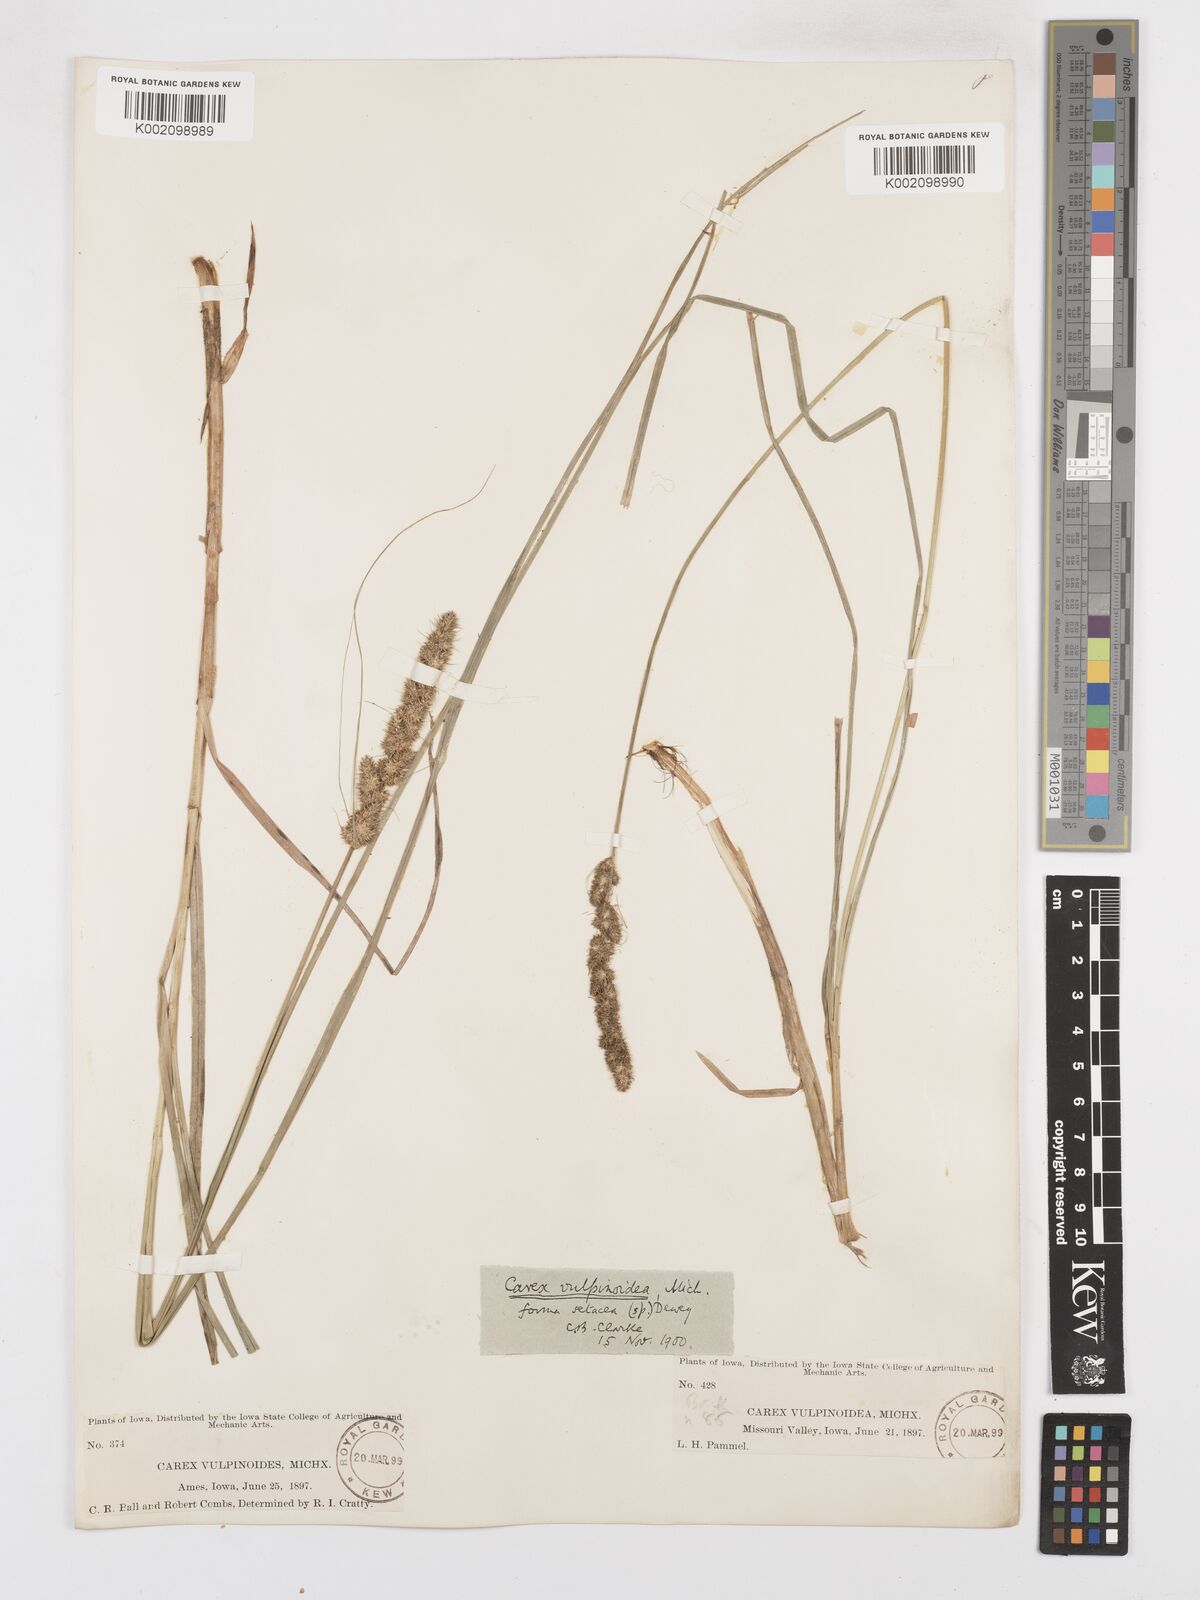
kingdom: Plantae
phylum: Tracheophyta
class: Liliopsida
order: Poales
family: Cyperaceae
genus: Carex
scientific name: Carex vulpinoidea
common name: American fox-sedge
